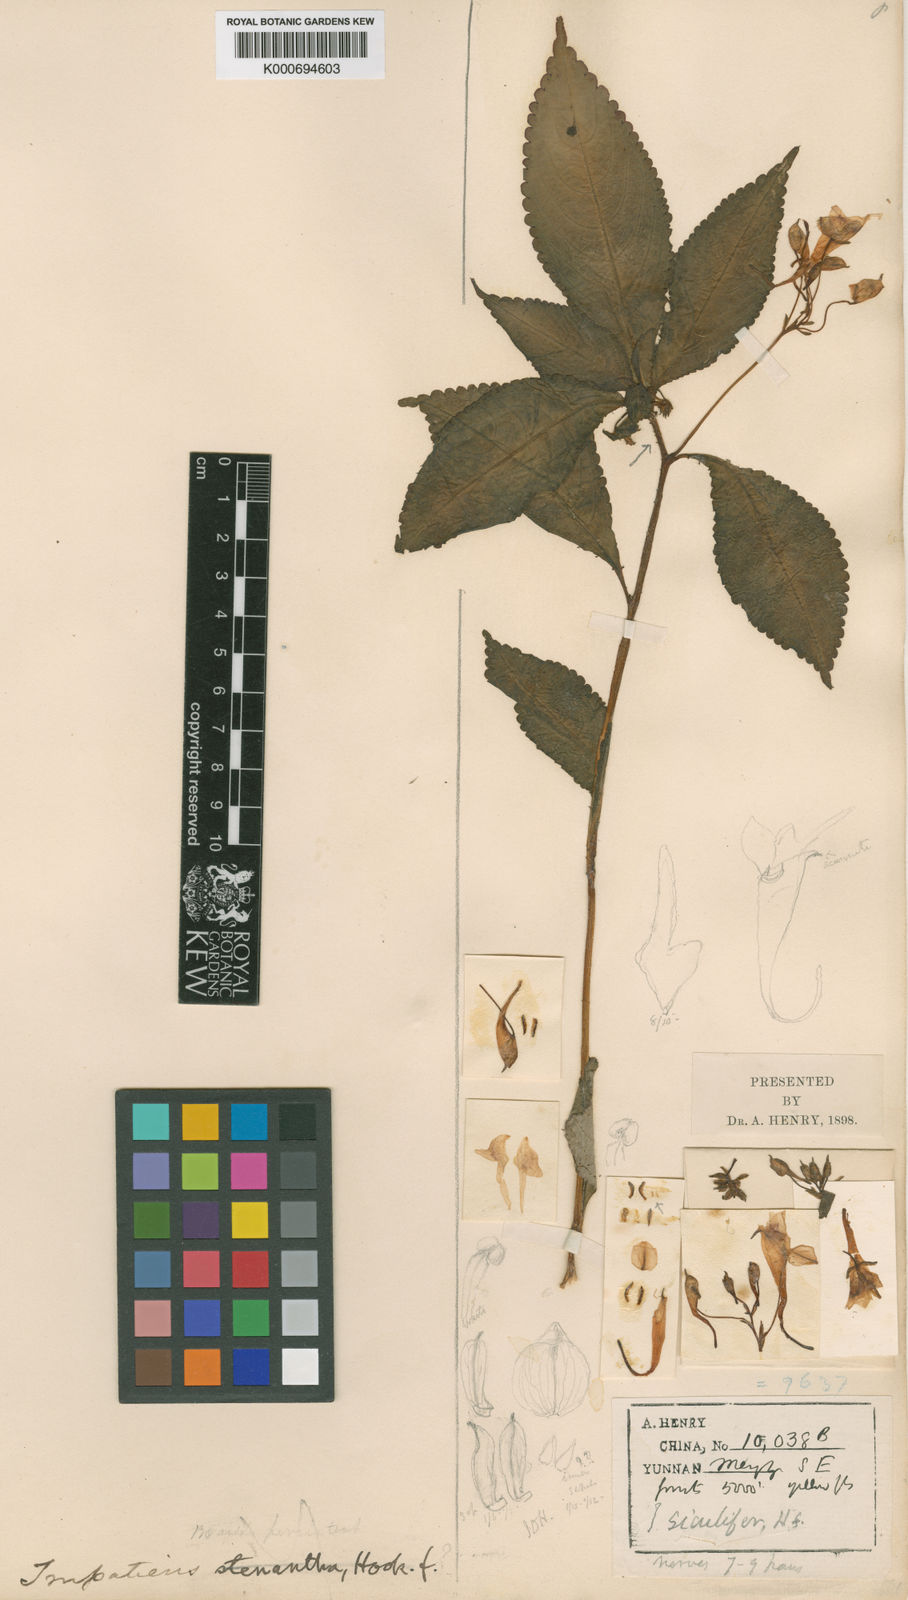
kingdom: Plantae
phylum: Tracheophyta
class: Magnoliopsida
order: Ericales
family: Balsaminaceae
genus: Impatiens
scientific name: Impatiens siculifera
